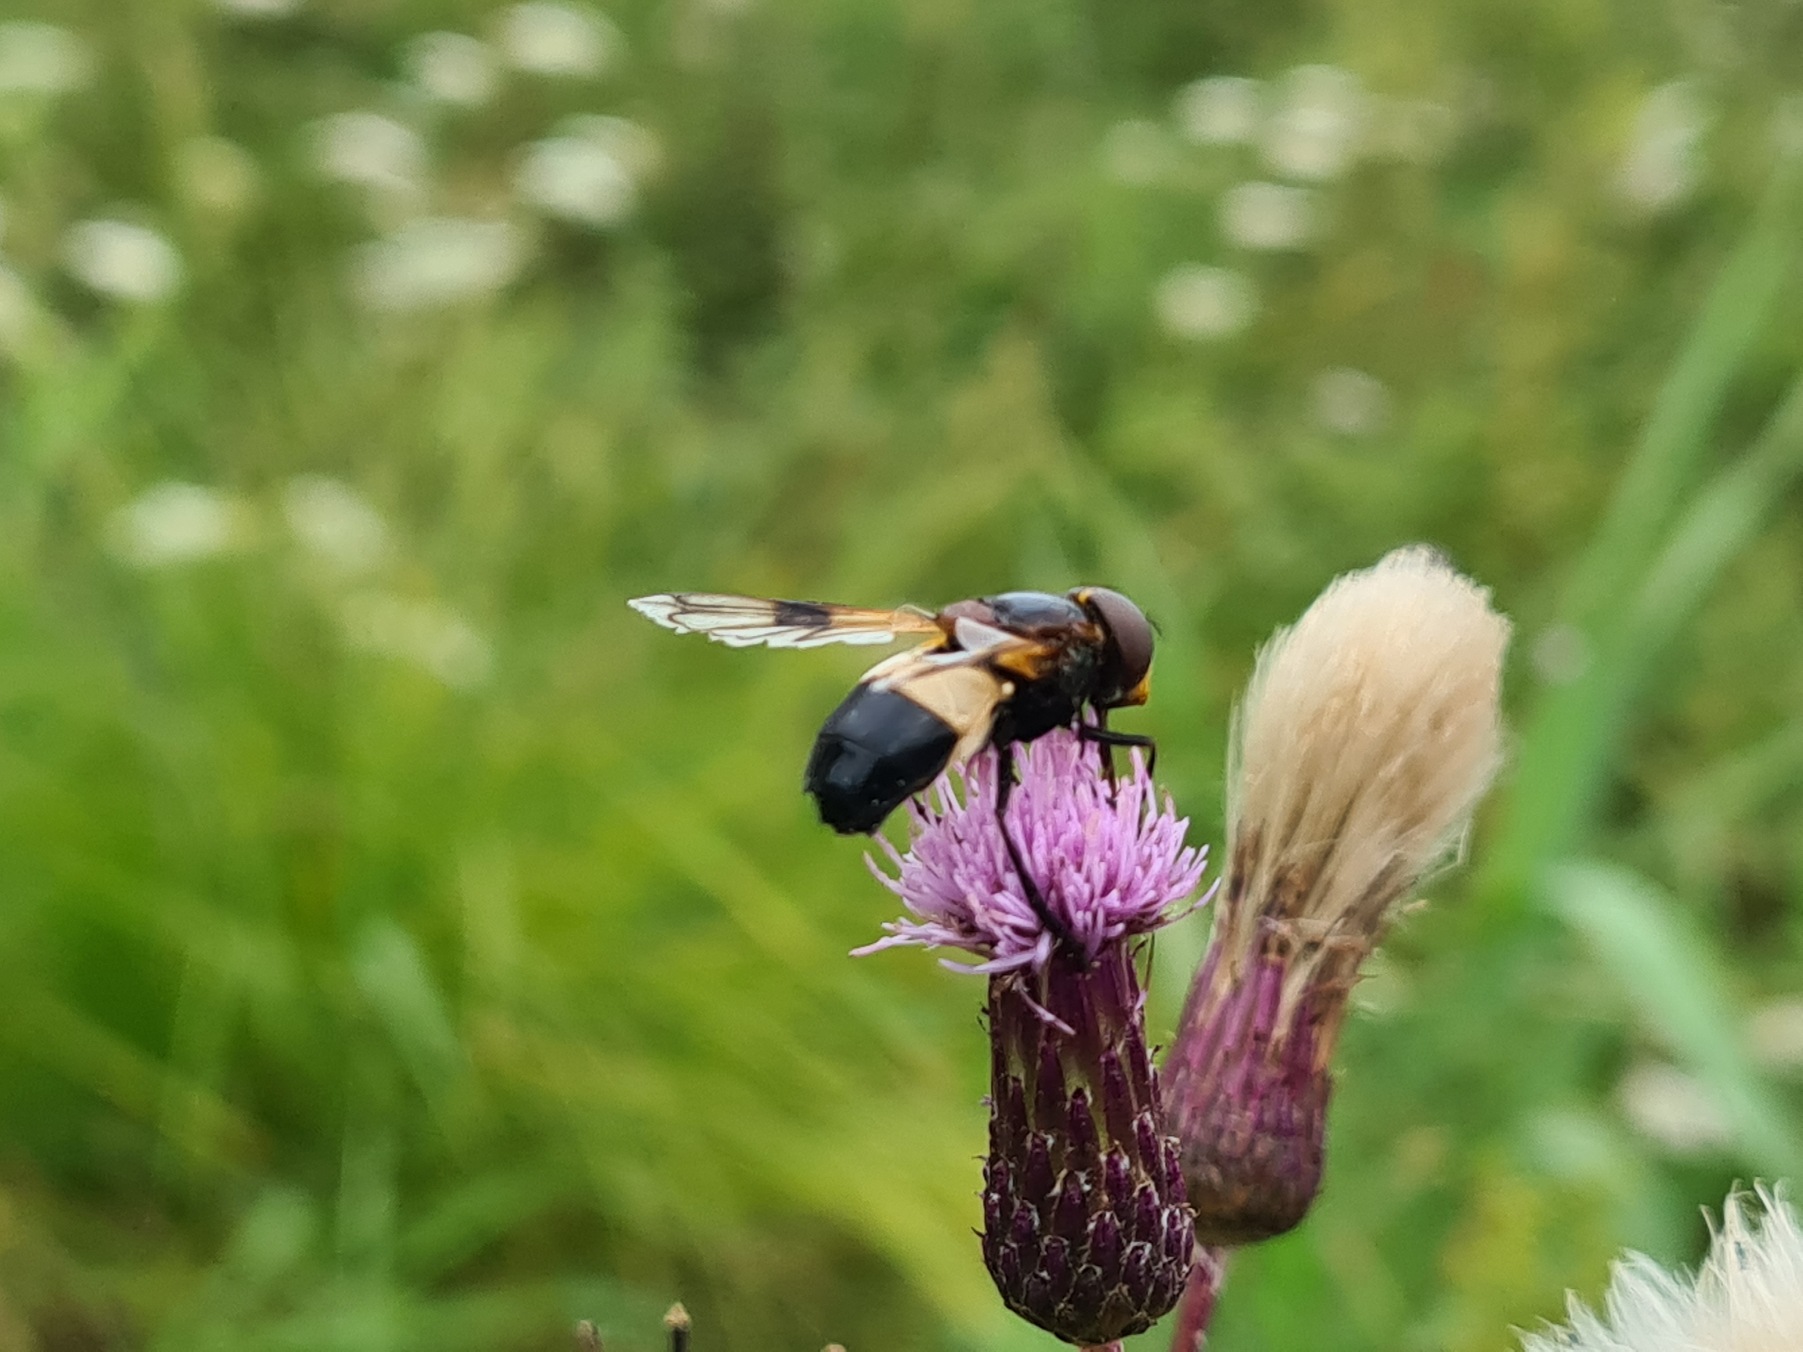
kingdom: Animalia
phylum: Arthropoda
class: Insecta
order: Diptera
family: Syrphidae
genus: Volucella
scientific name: Volucella pellucens
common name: Hvidbåndet humlesvirreflue
